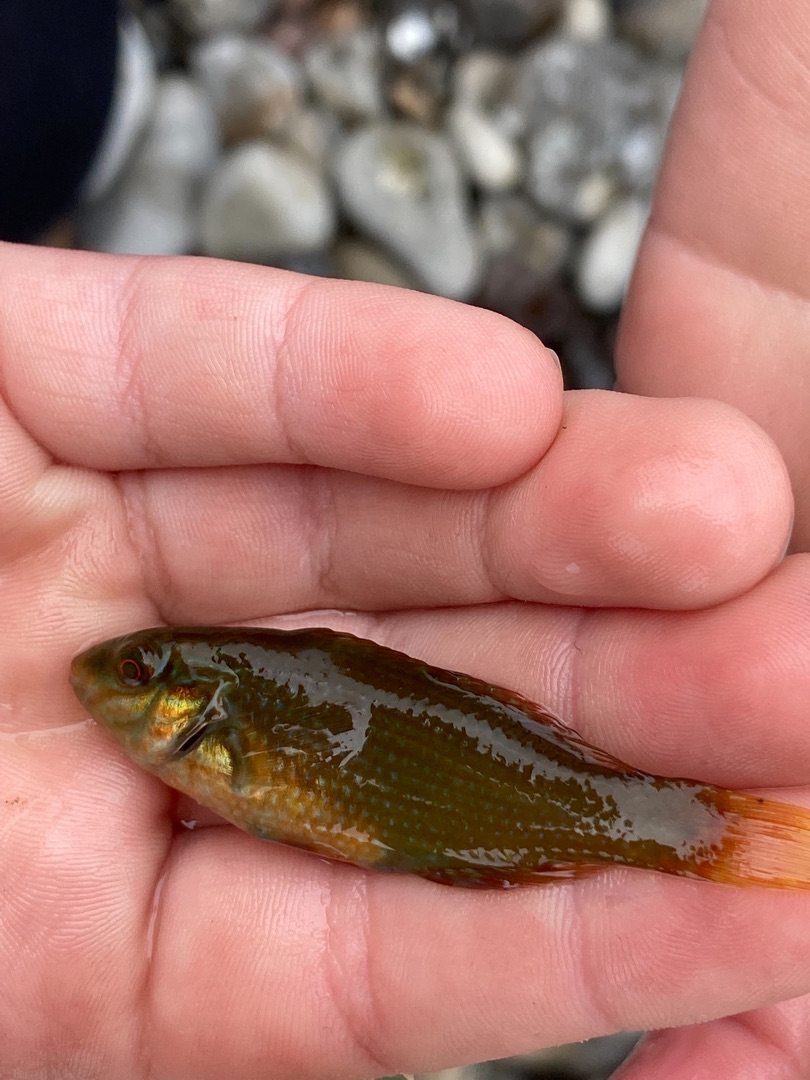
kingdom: Animalia
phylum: Chordata
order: Perciformes
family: Labridae
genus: Symphodus
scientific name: Symphodus melops
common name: Savgylte
